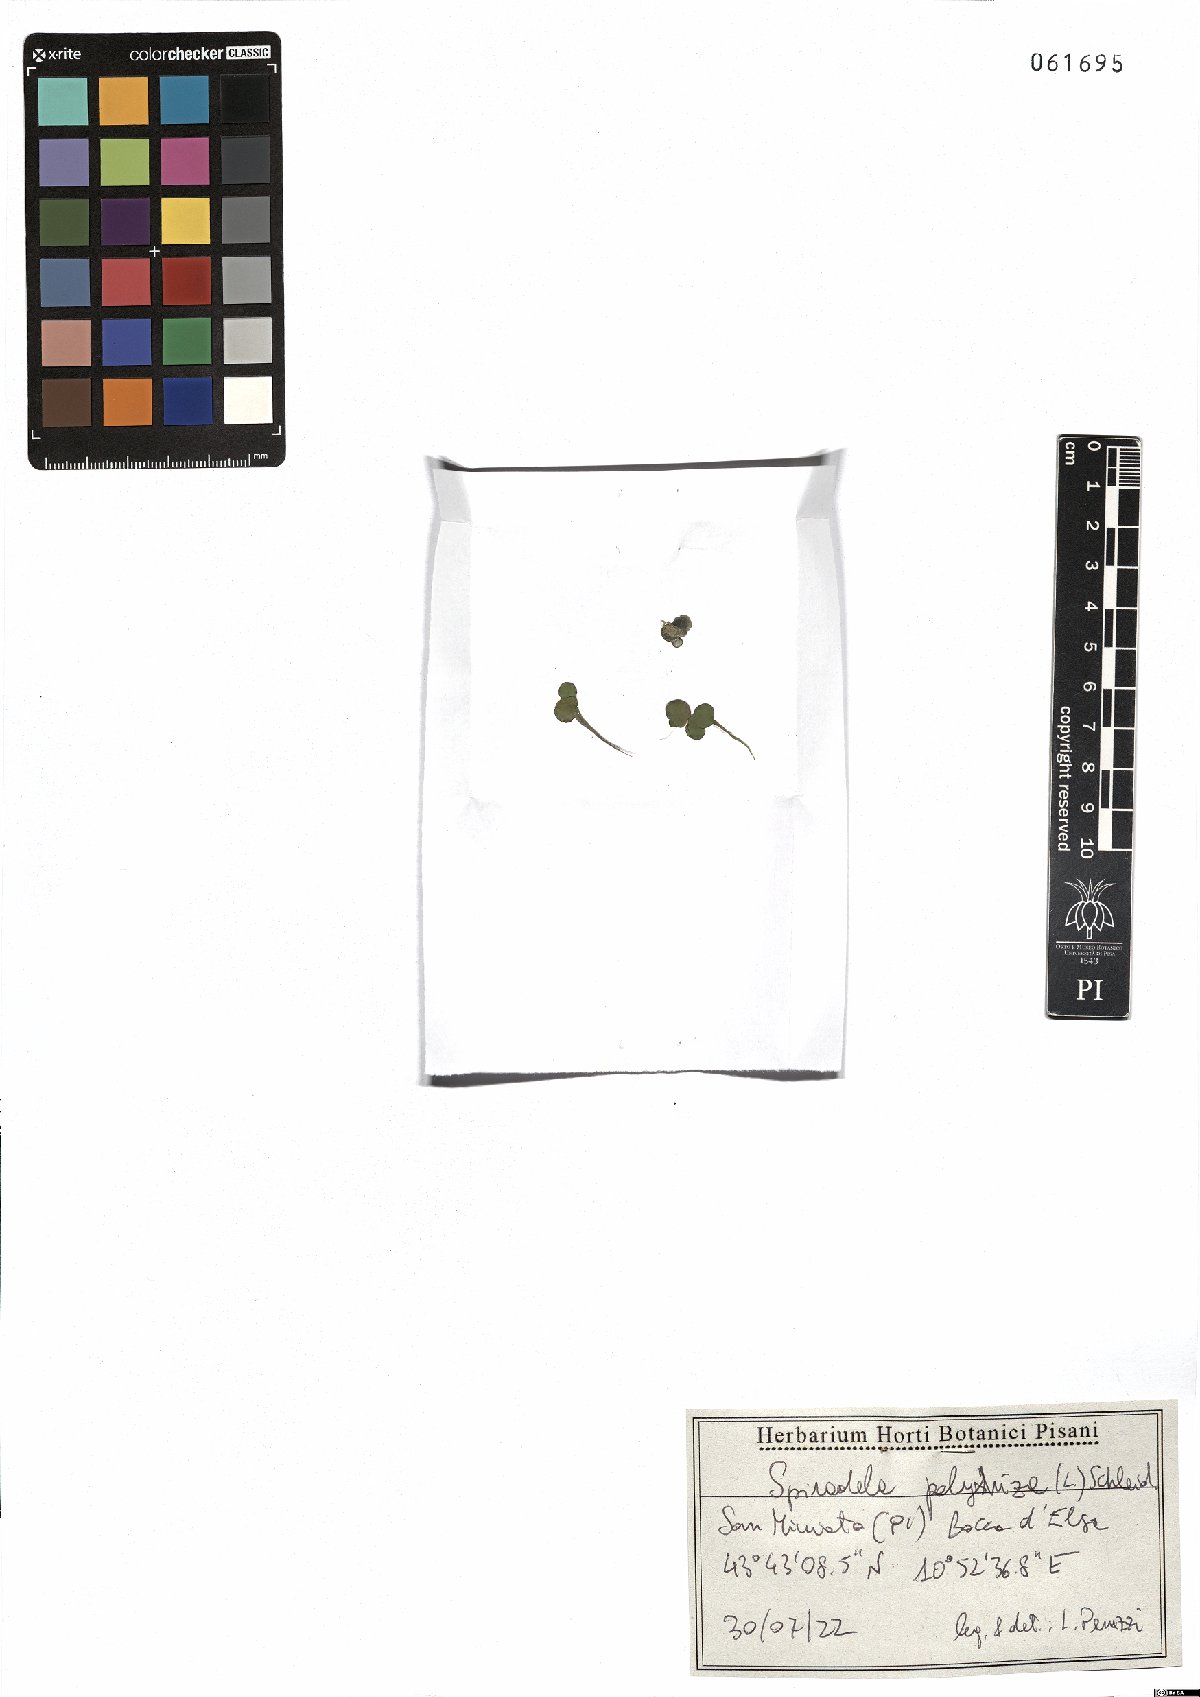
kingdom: Plantae
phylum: Tracheophyta
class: Liliopsida
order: Alismatales
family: Araceae
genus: Spirodela
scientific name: Spirodela polyrhiza
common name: Great duckweed
